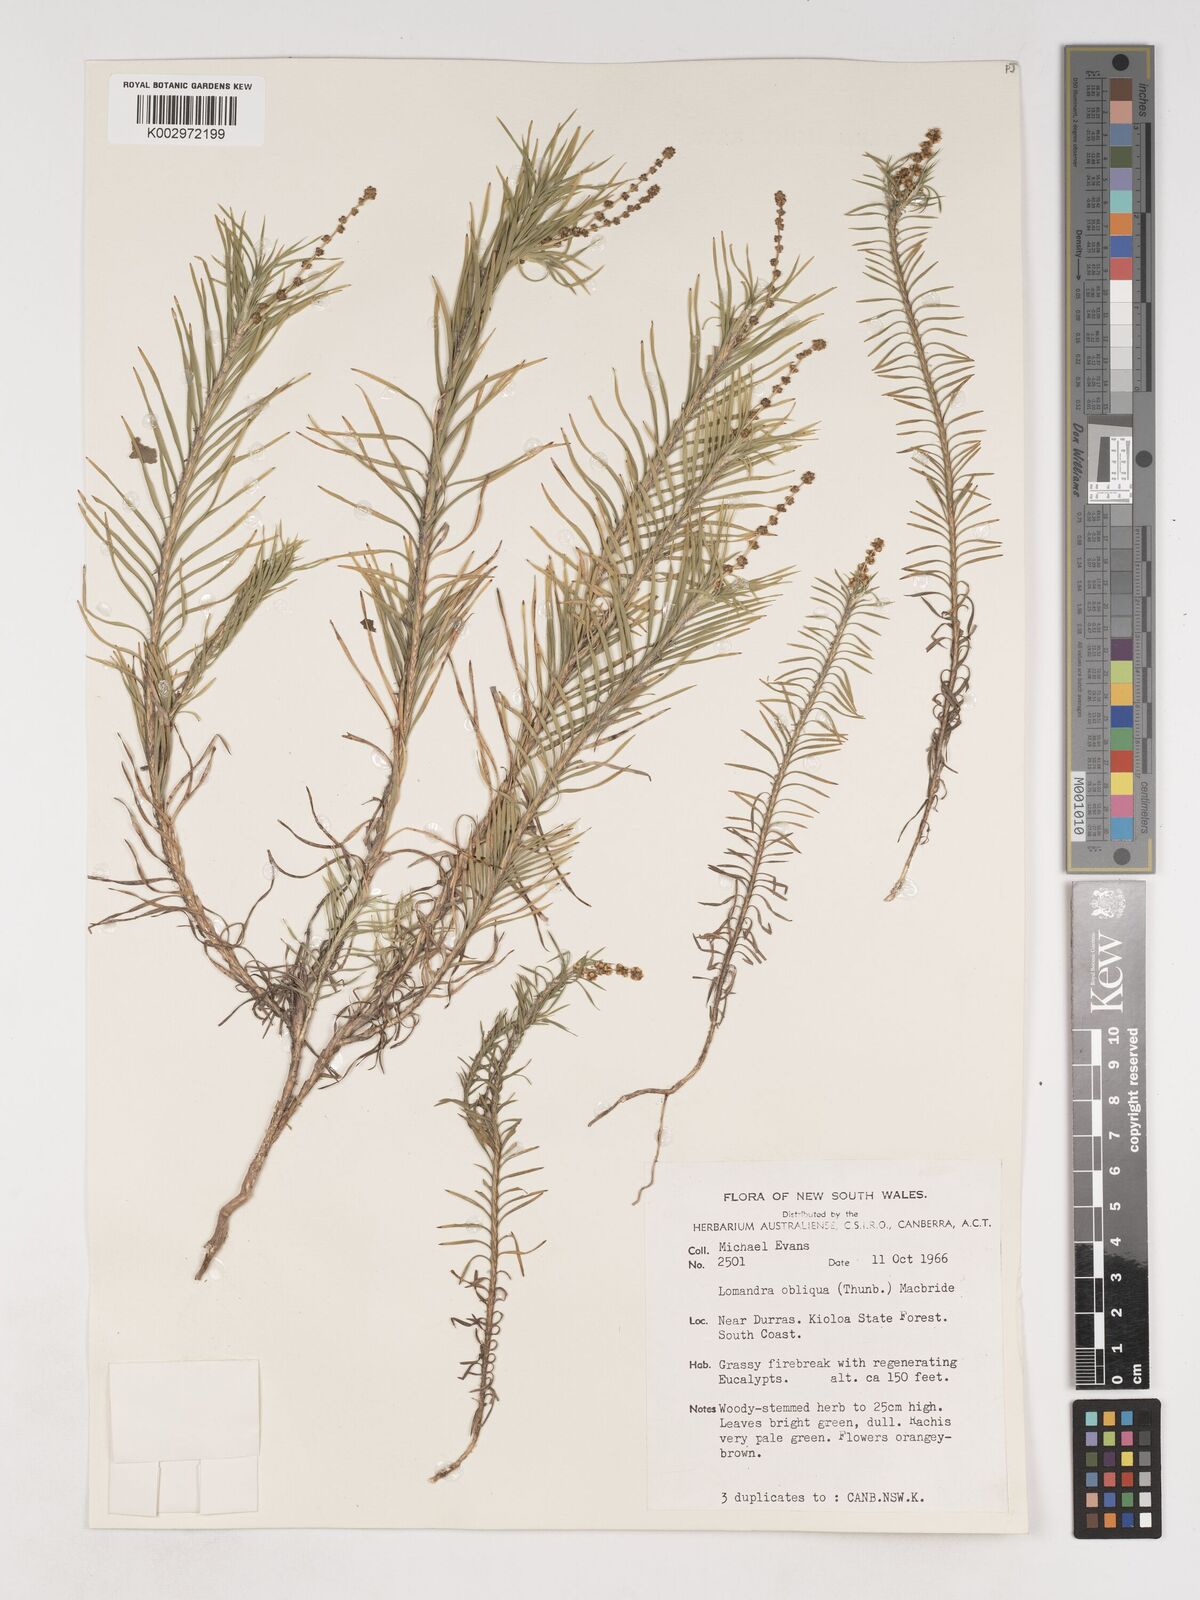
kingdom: Plantae
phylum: Tracheophyta
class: Liliopsida
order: Asparagales
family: Asparagaceae
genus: Lomandra
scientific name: Lomandra obliqua
